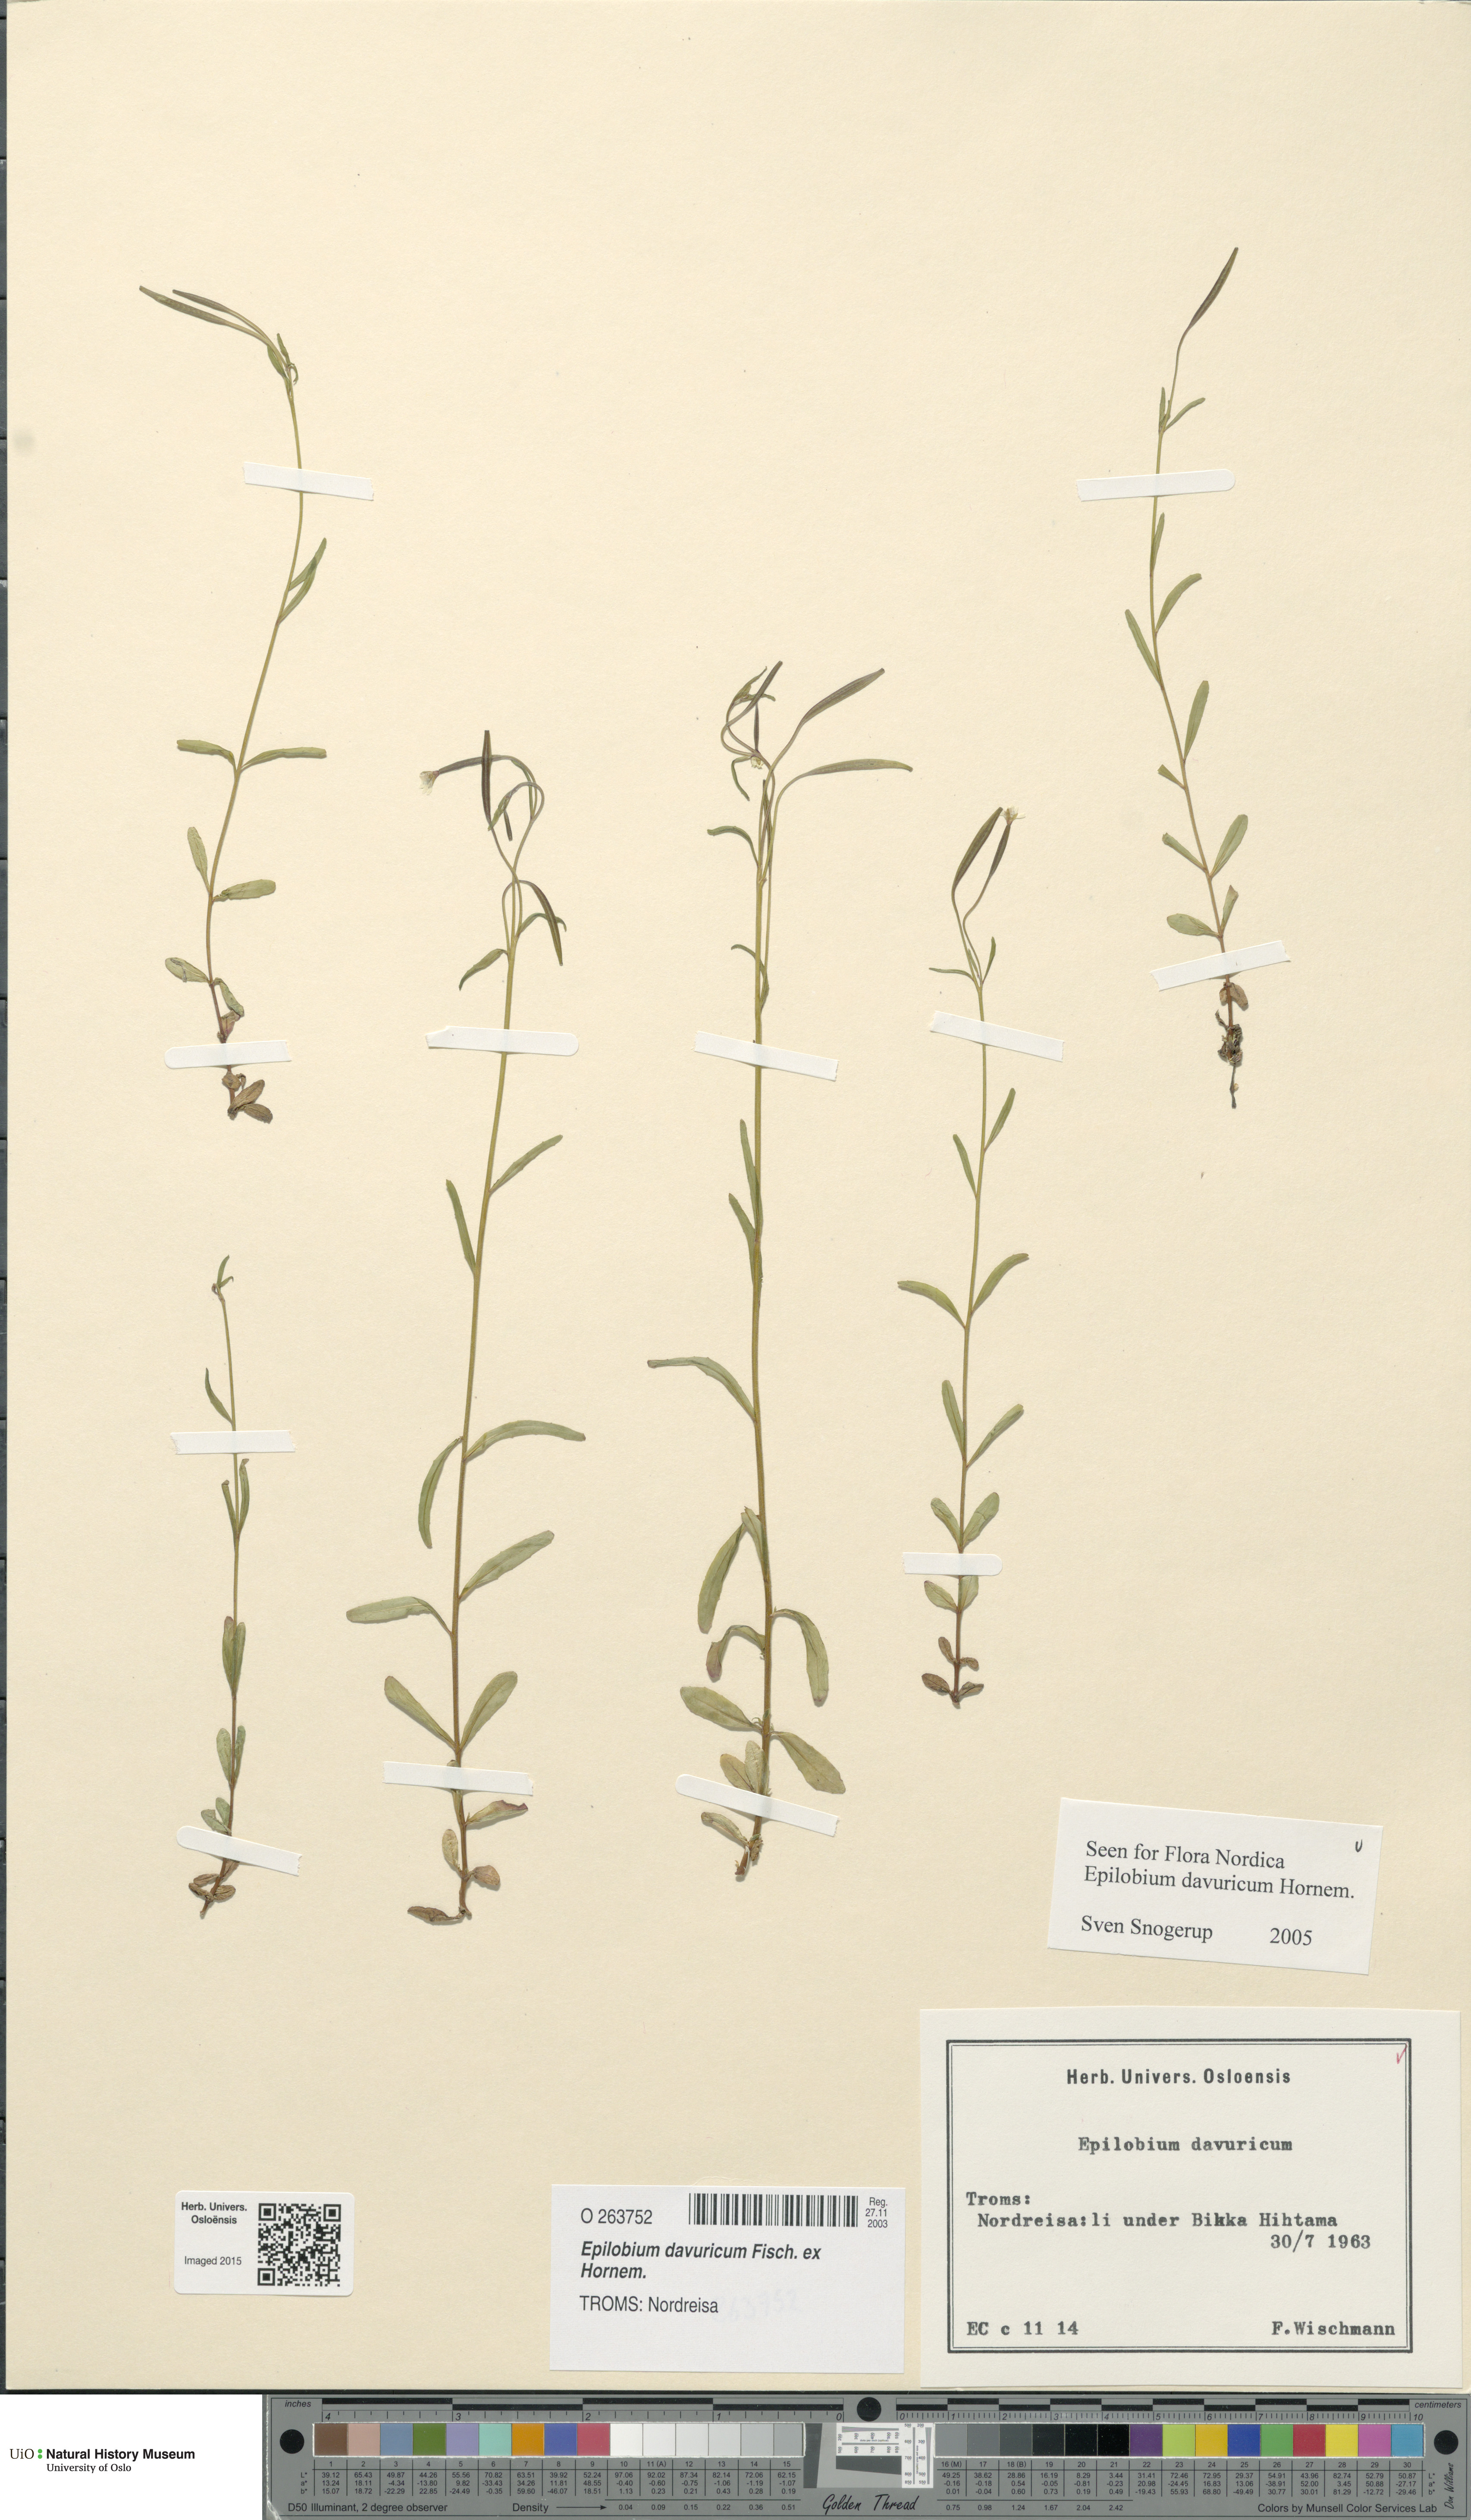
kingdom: Plantae
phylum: Tracheophyta
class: Magnoliopsida
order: Myrtales
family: Onagraceae
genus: Epilobium
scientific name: Epilobium davuricum
